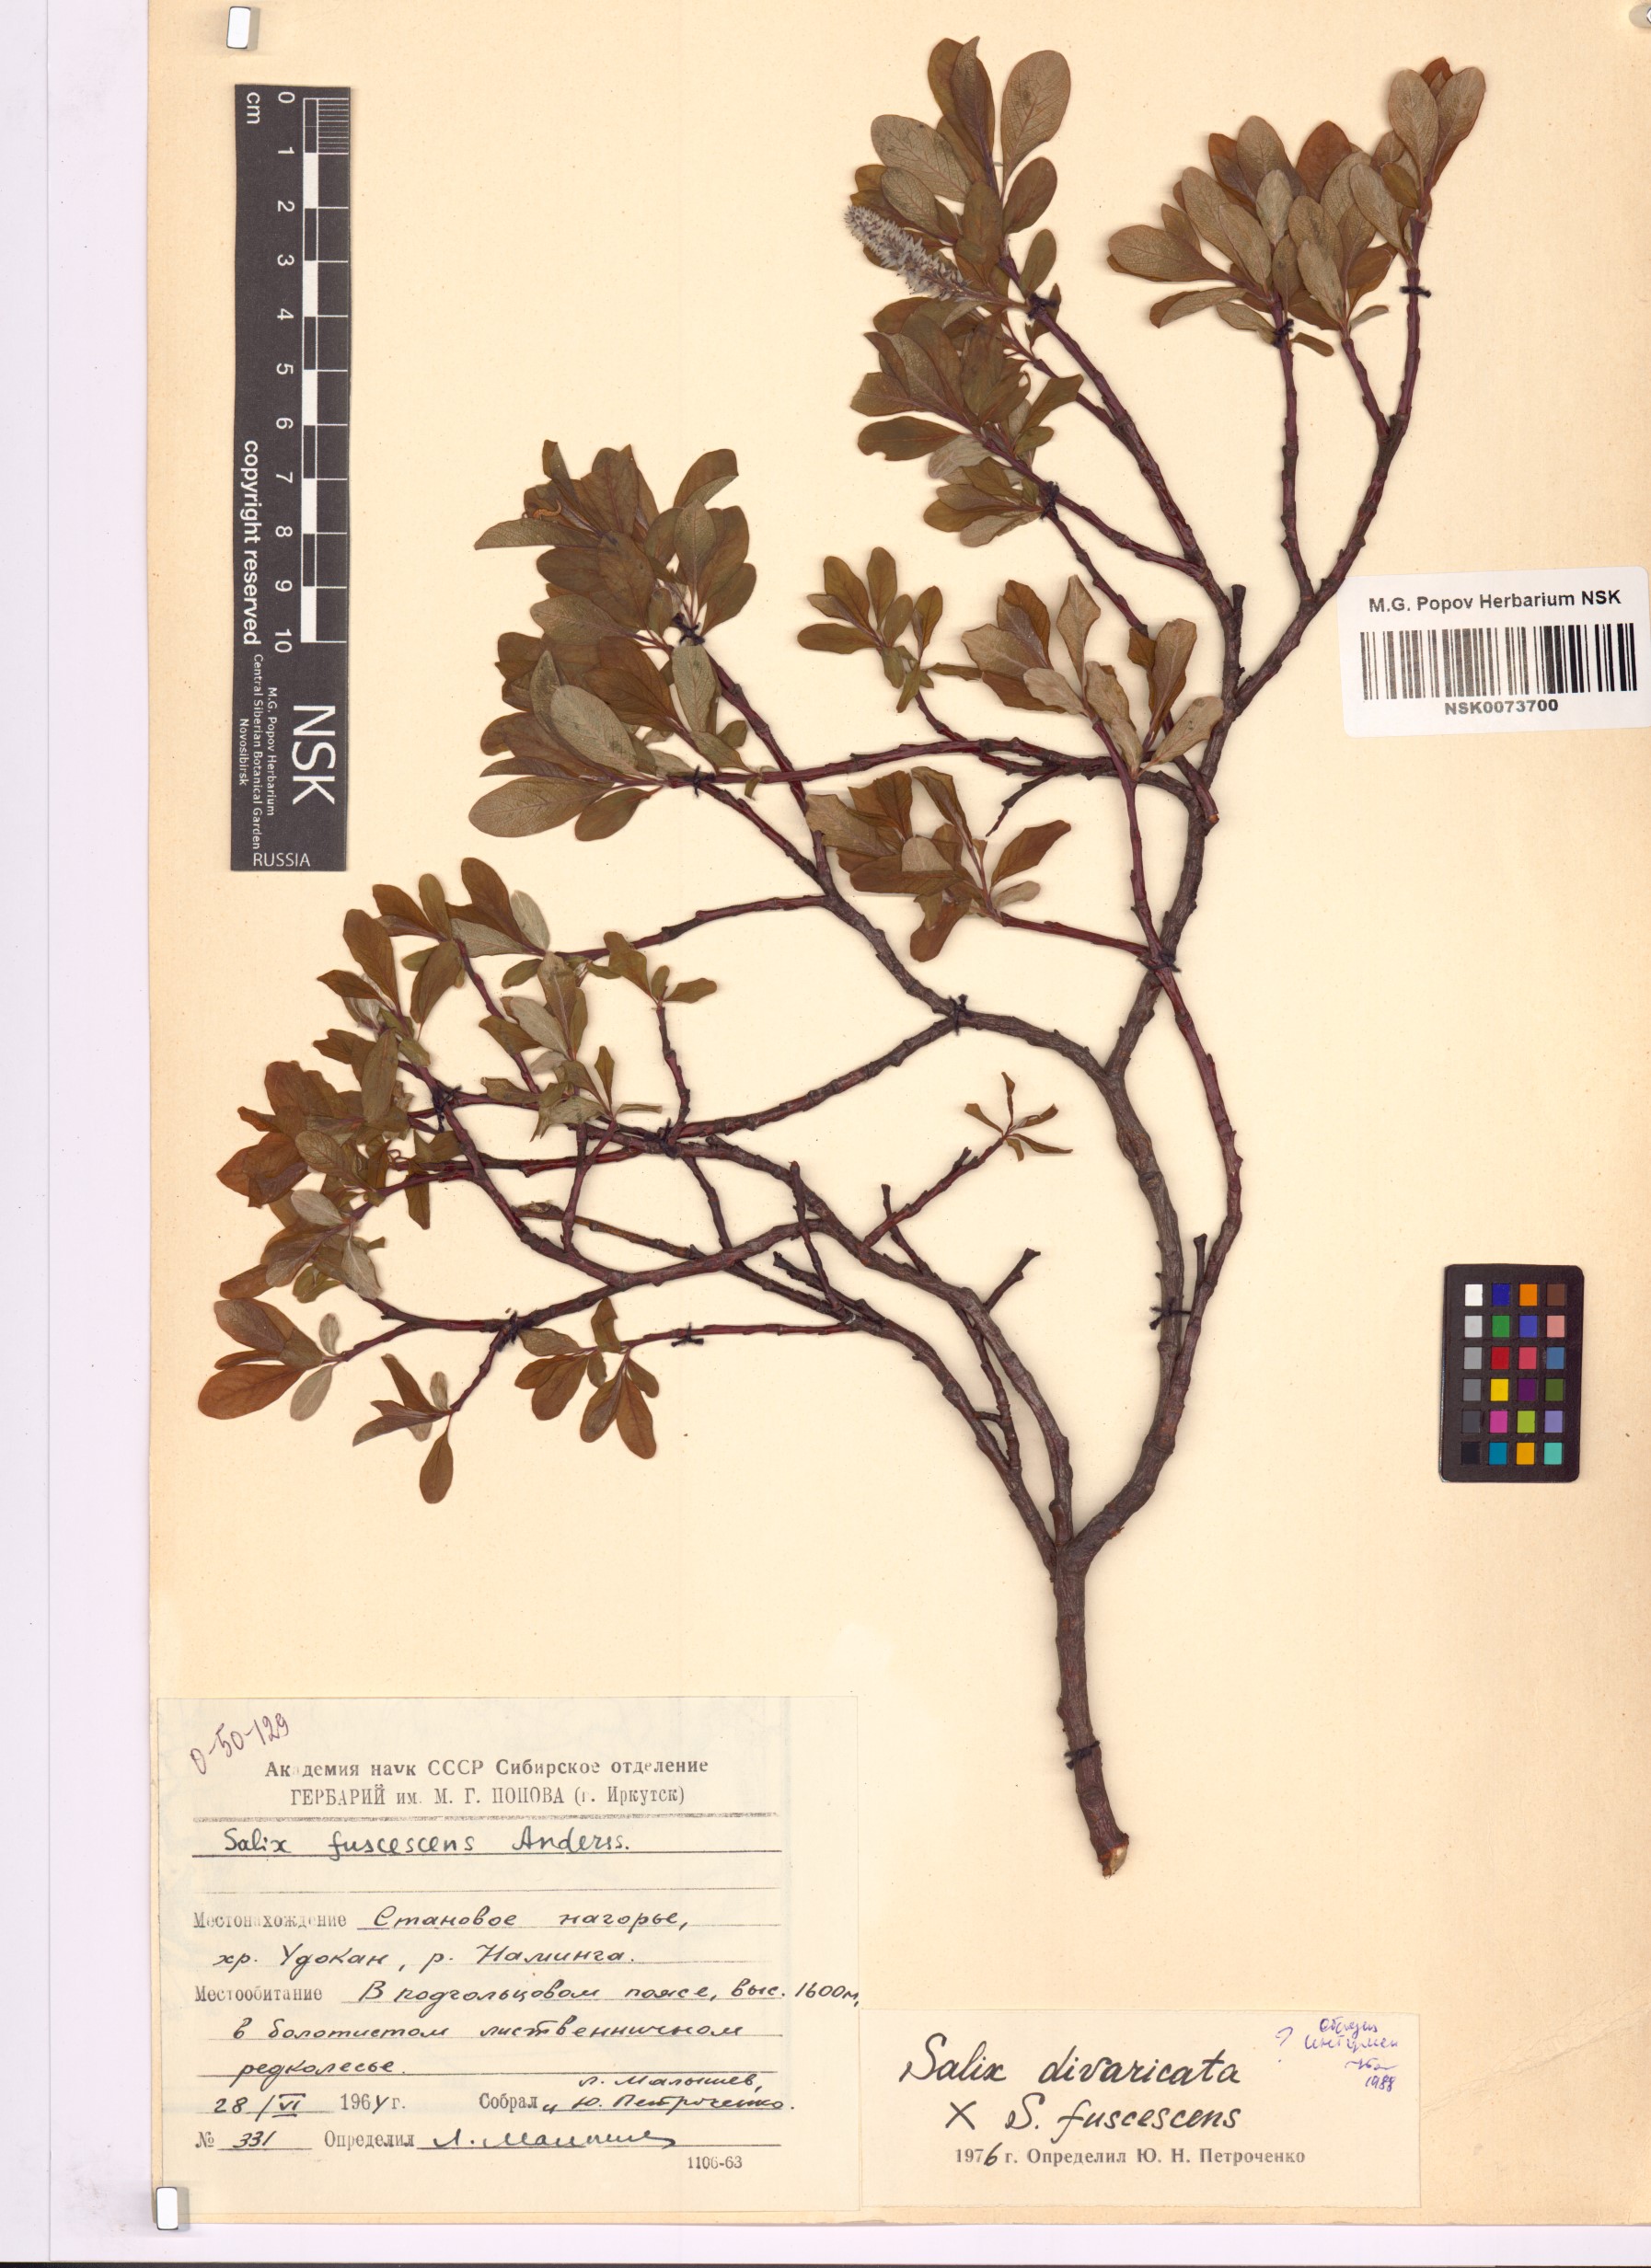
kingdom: Plantae
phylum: Tracheophyta
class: Magnoliopsida
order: Malpighiales
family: Salicaceae
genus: Salix
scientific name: Salix
